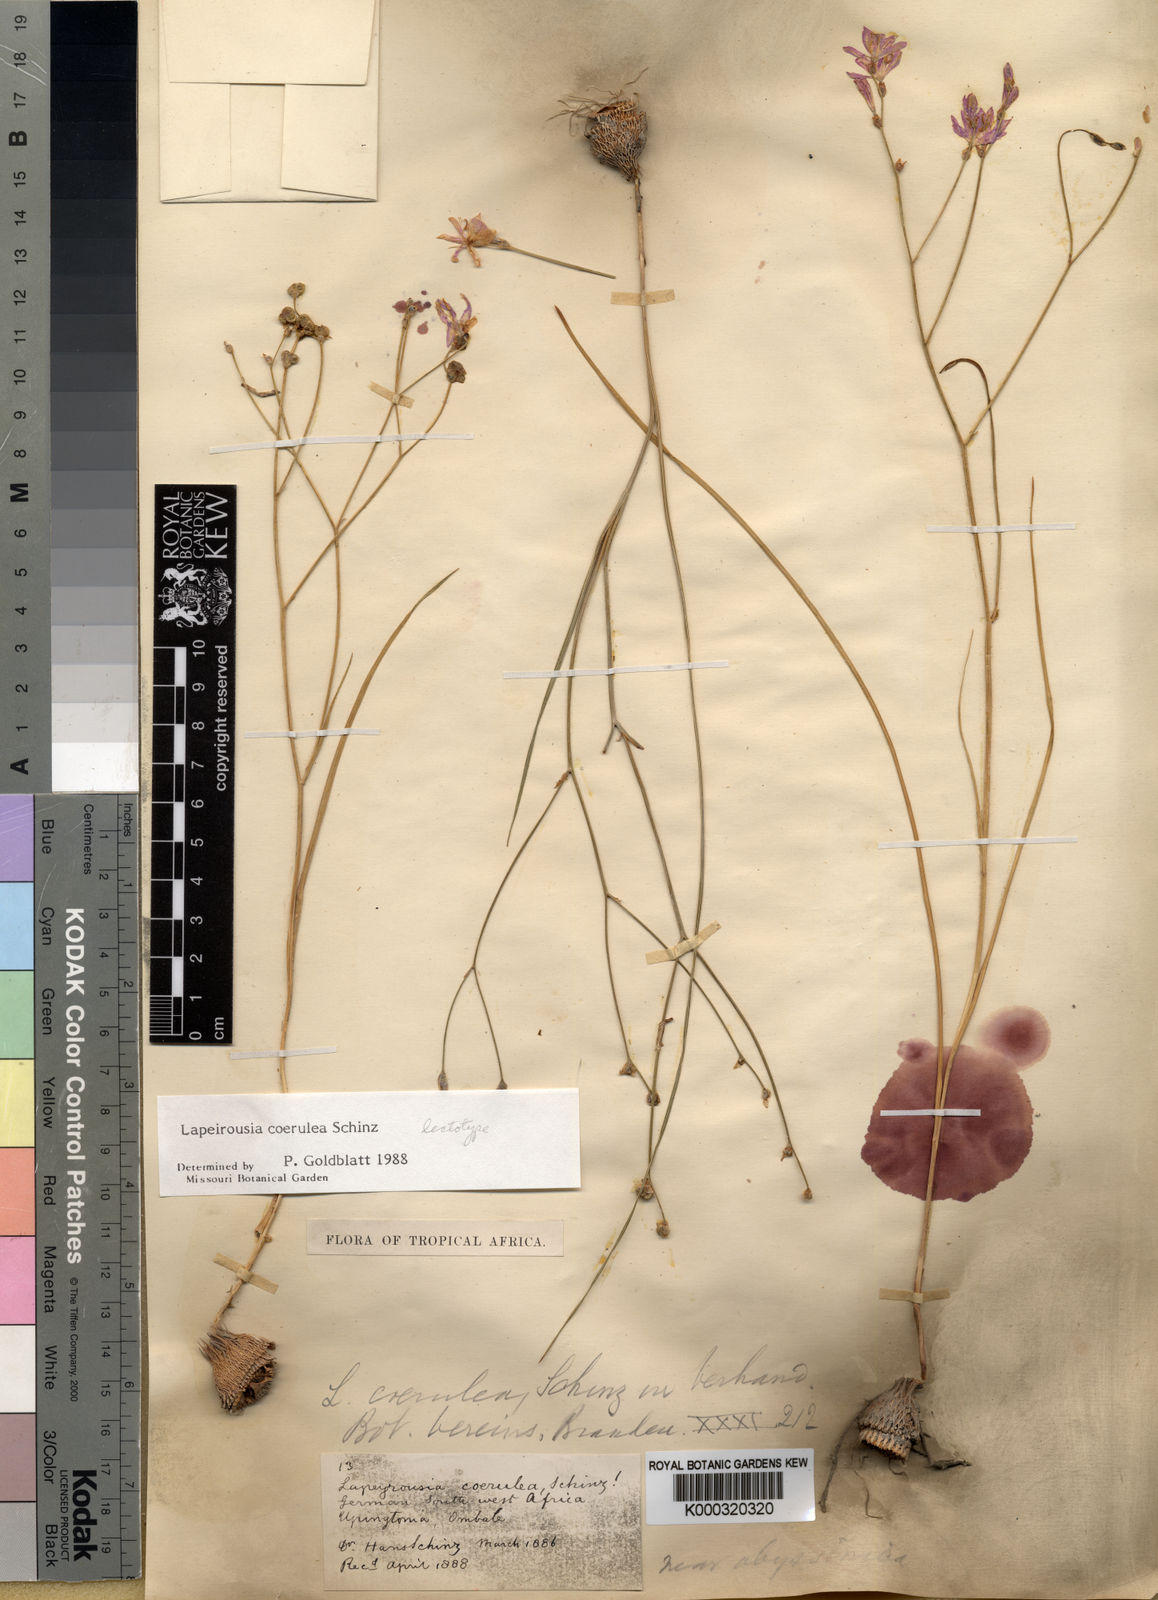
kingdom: Plantae
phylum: Tracheophyta
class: Liliopsida
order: Asparagales
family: Iridaceae
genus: Afrosolen
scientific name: Afrosolen coeruleus
